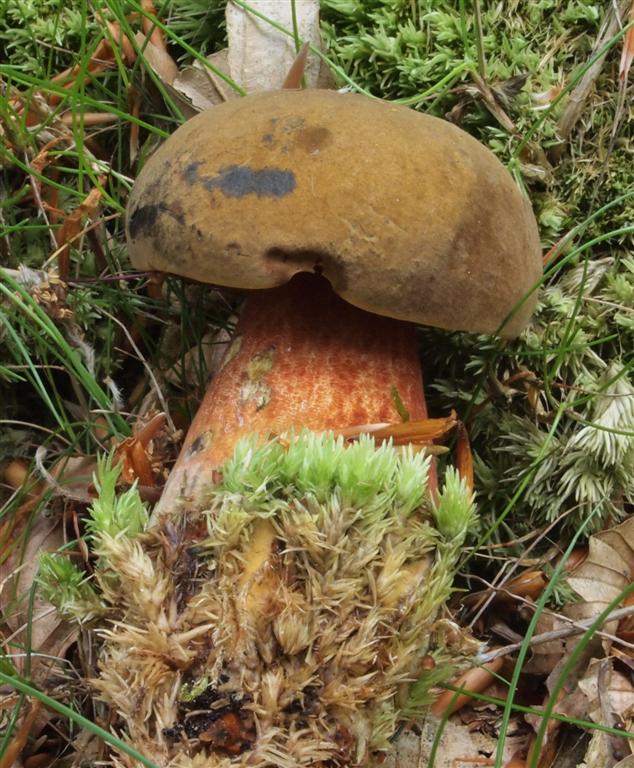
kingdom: Fungi
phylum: Basidiomycota
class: Agaricomycetes
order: Boletales
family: Boletaceae
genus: Neoboletus
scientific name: Neoboletus erythropus
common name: punktstokket indigorørhat
